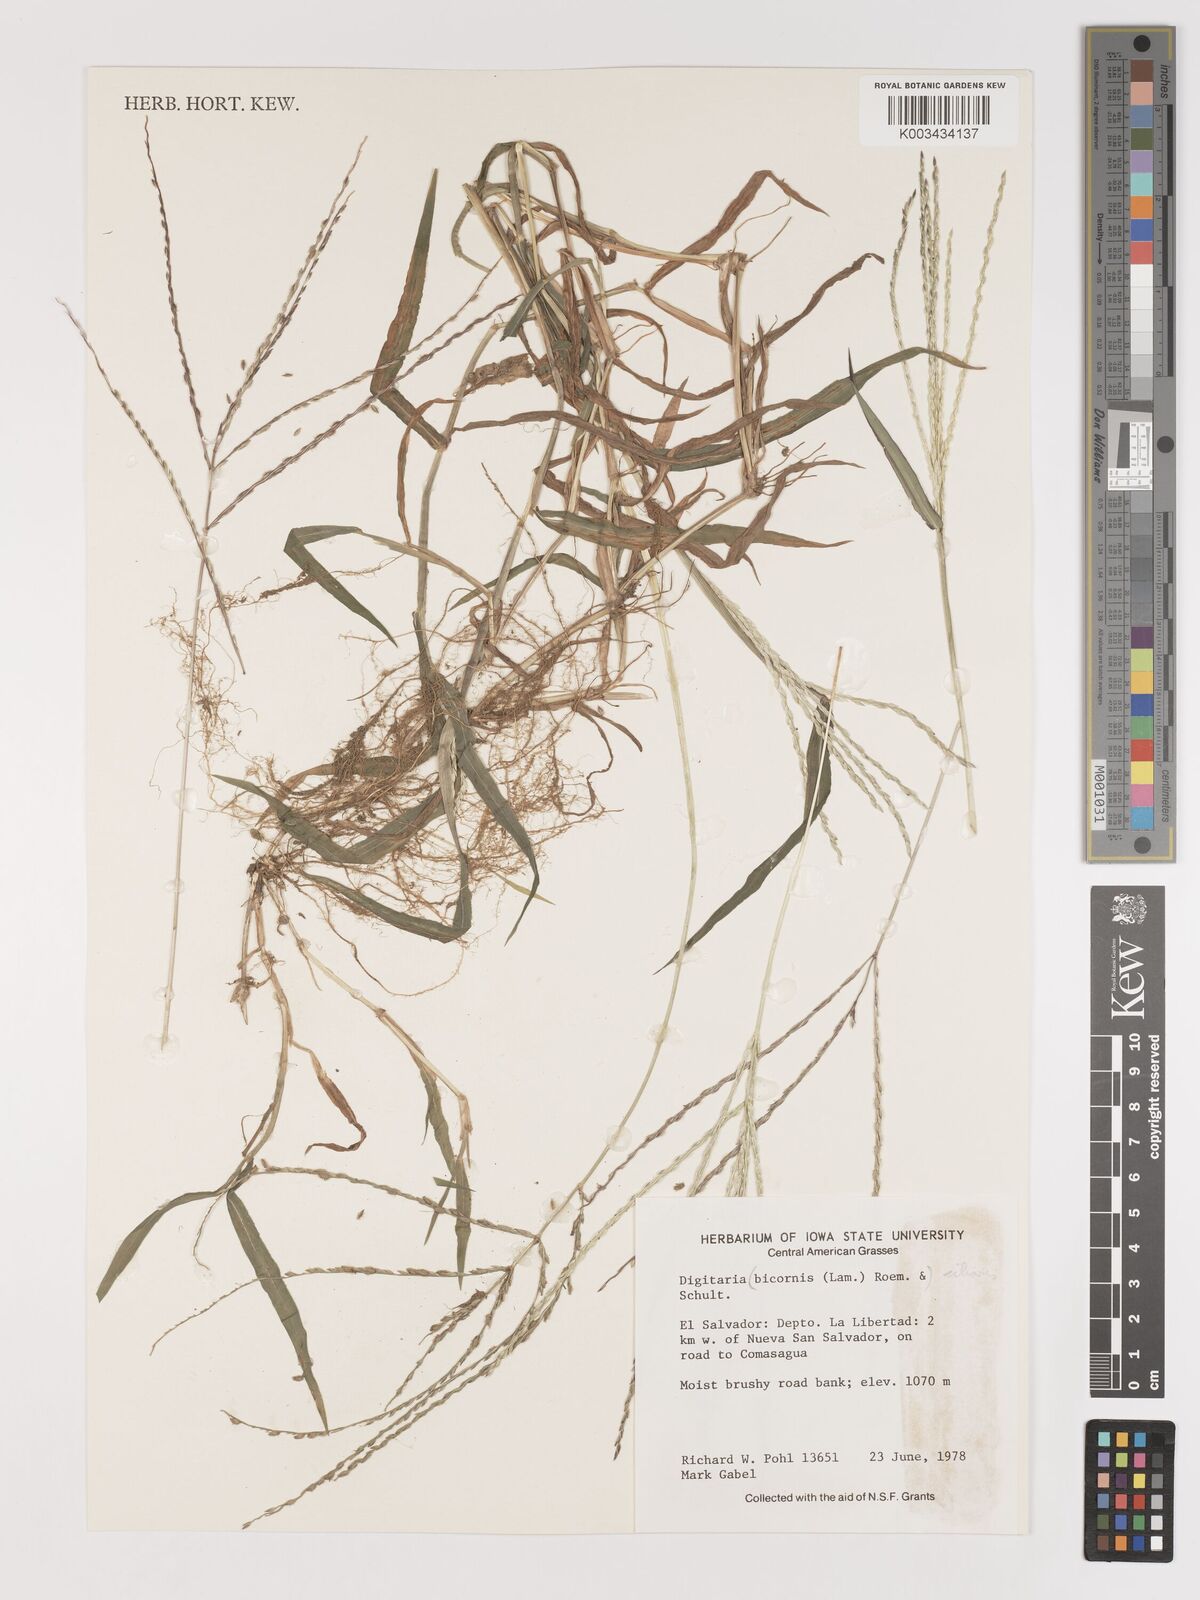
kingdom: Plantae
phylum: Tracheophyta
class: Liliopsida
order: Poales
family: Poaceae
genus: Digitaria
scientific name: Digitaria ciliaris
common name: Tropical finger-grass
